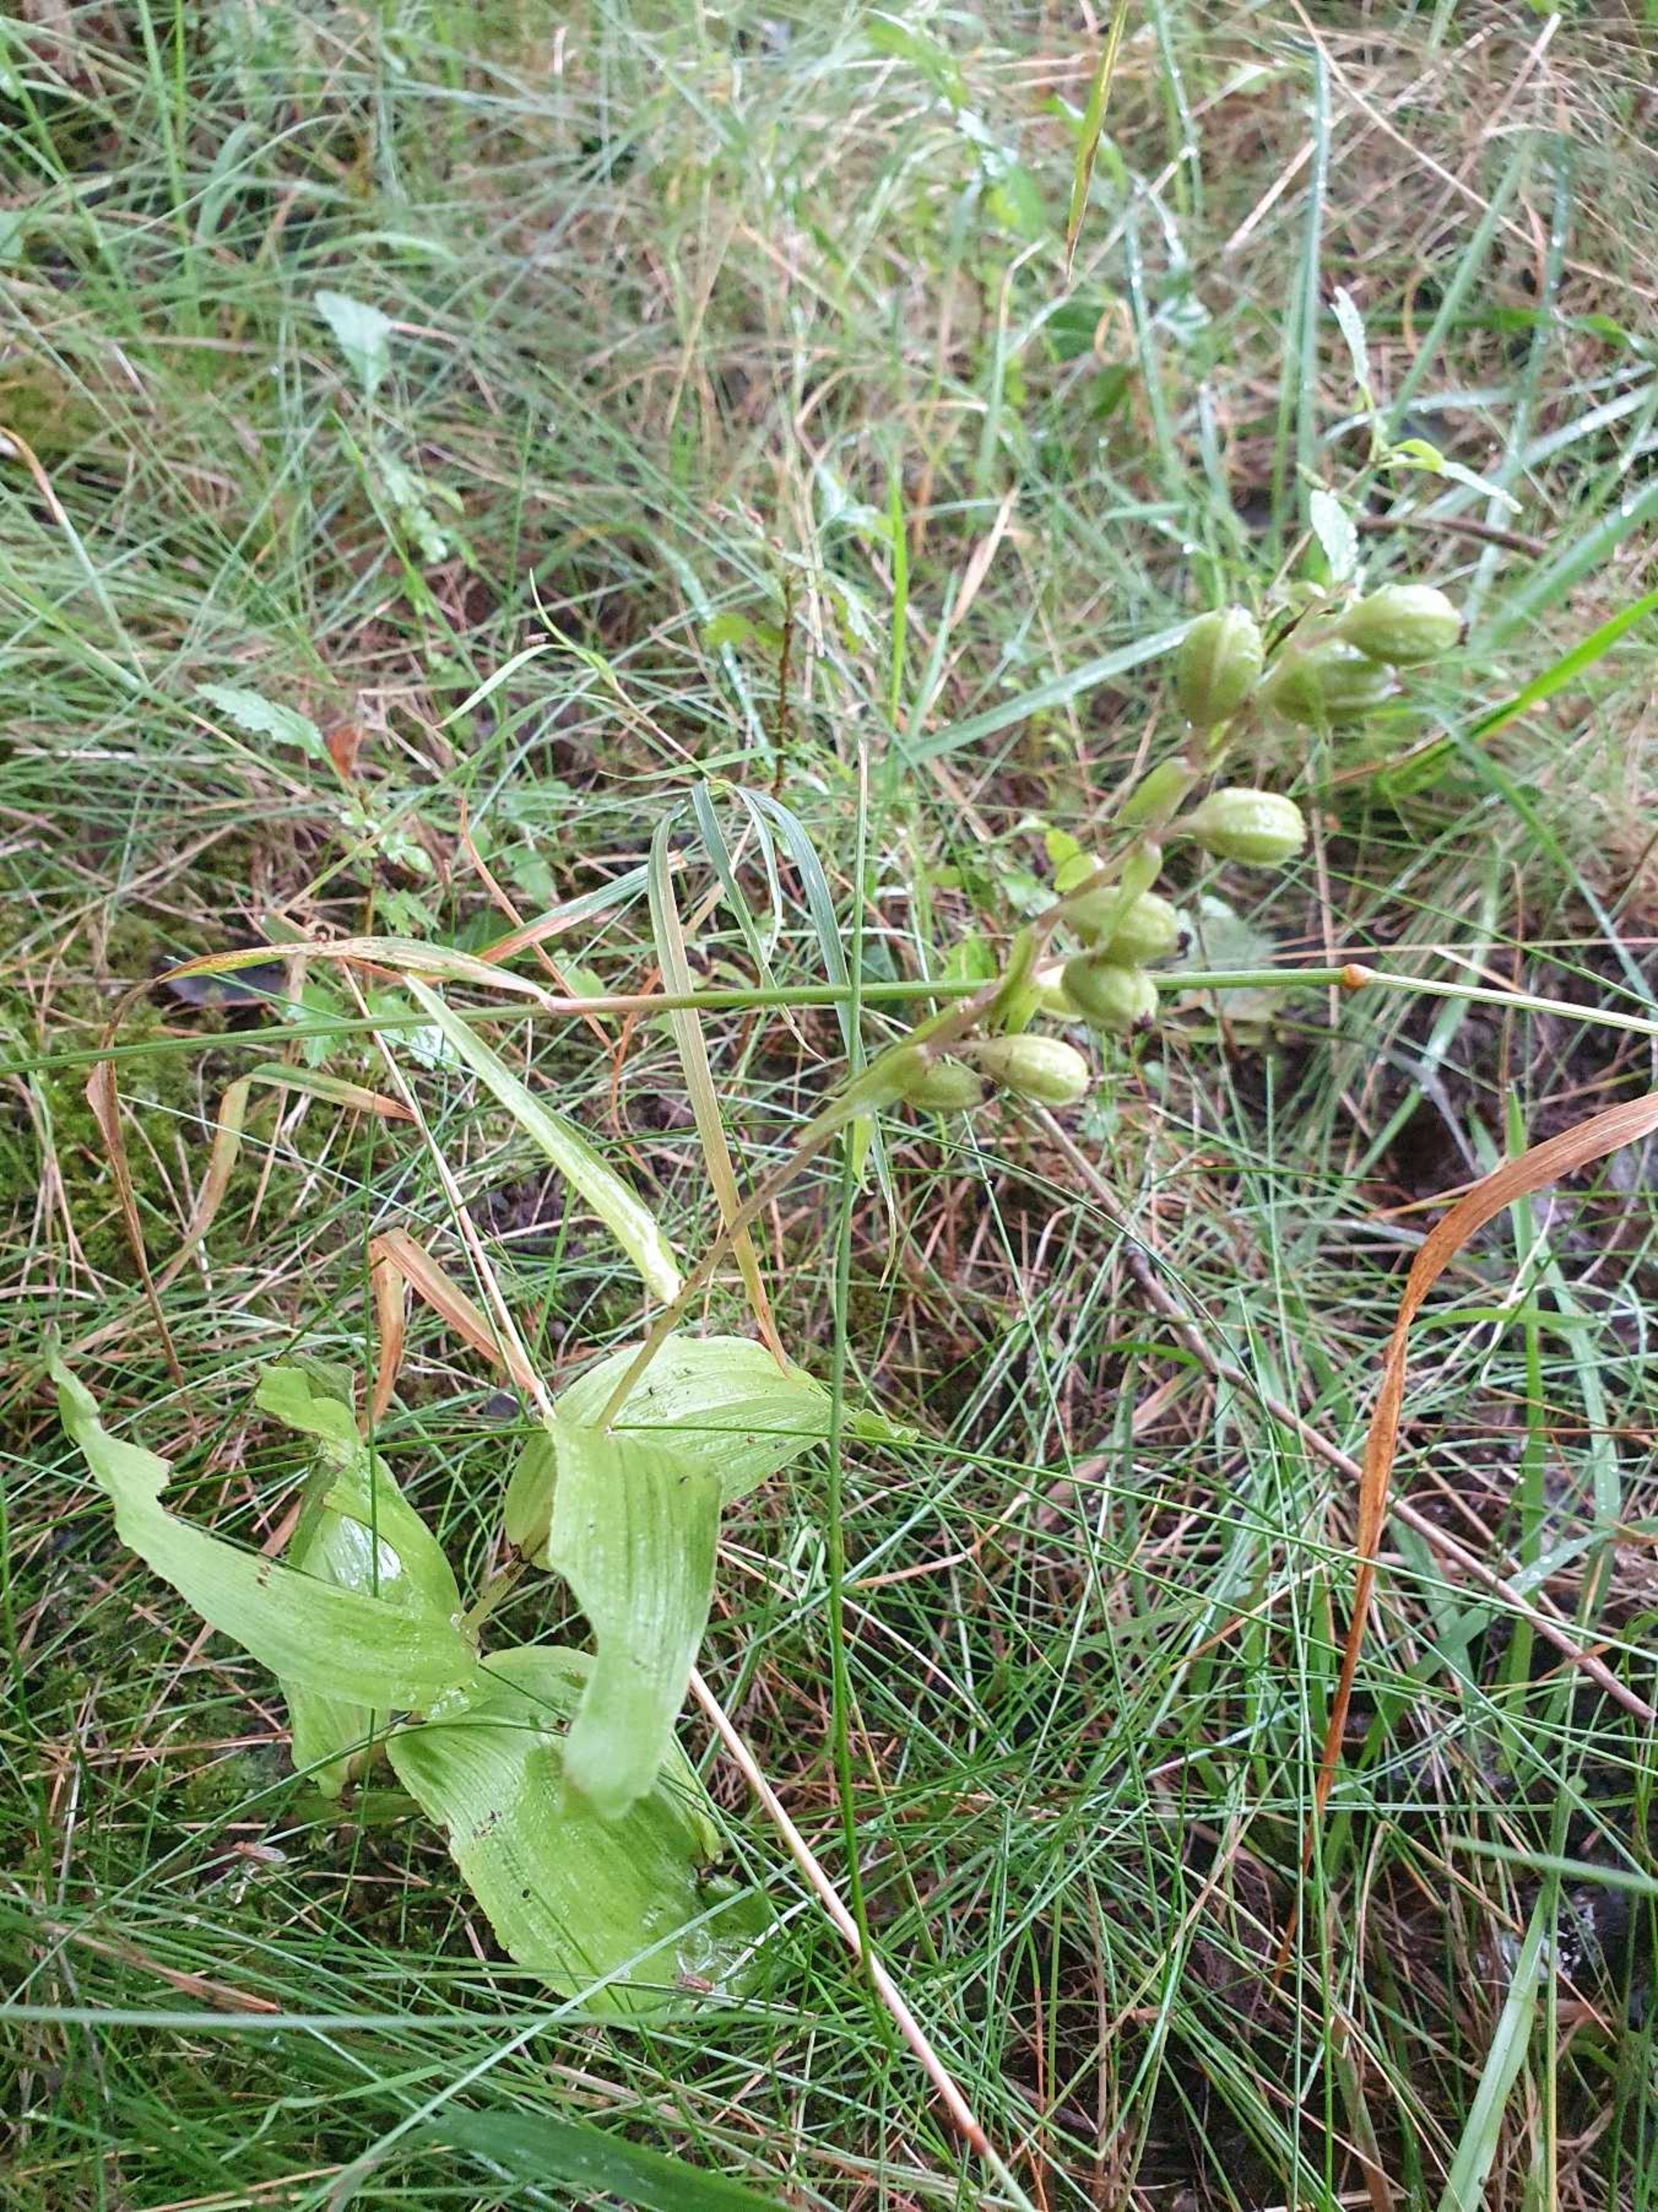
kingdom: Plantae
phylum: Tracheophyta
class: Liliopsida
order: Asparagales
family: Orchidaceae
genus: Epipactis
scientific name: Epipactis helleborine
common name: Skov-hullæbe
